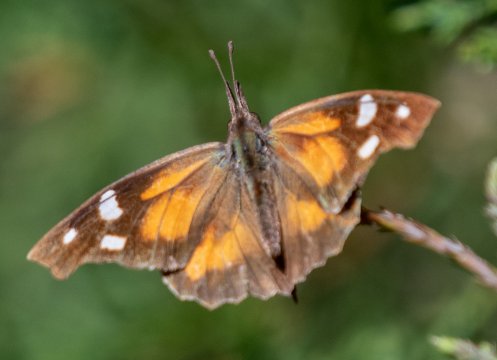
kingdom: Animalia
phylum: Arthropoda
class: Insecta
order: Lepidoptera
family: Nymphalidae
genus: Libytheana
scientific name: Libytheana carinenta
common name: American Snout
